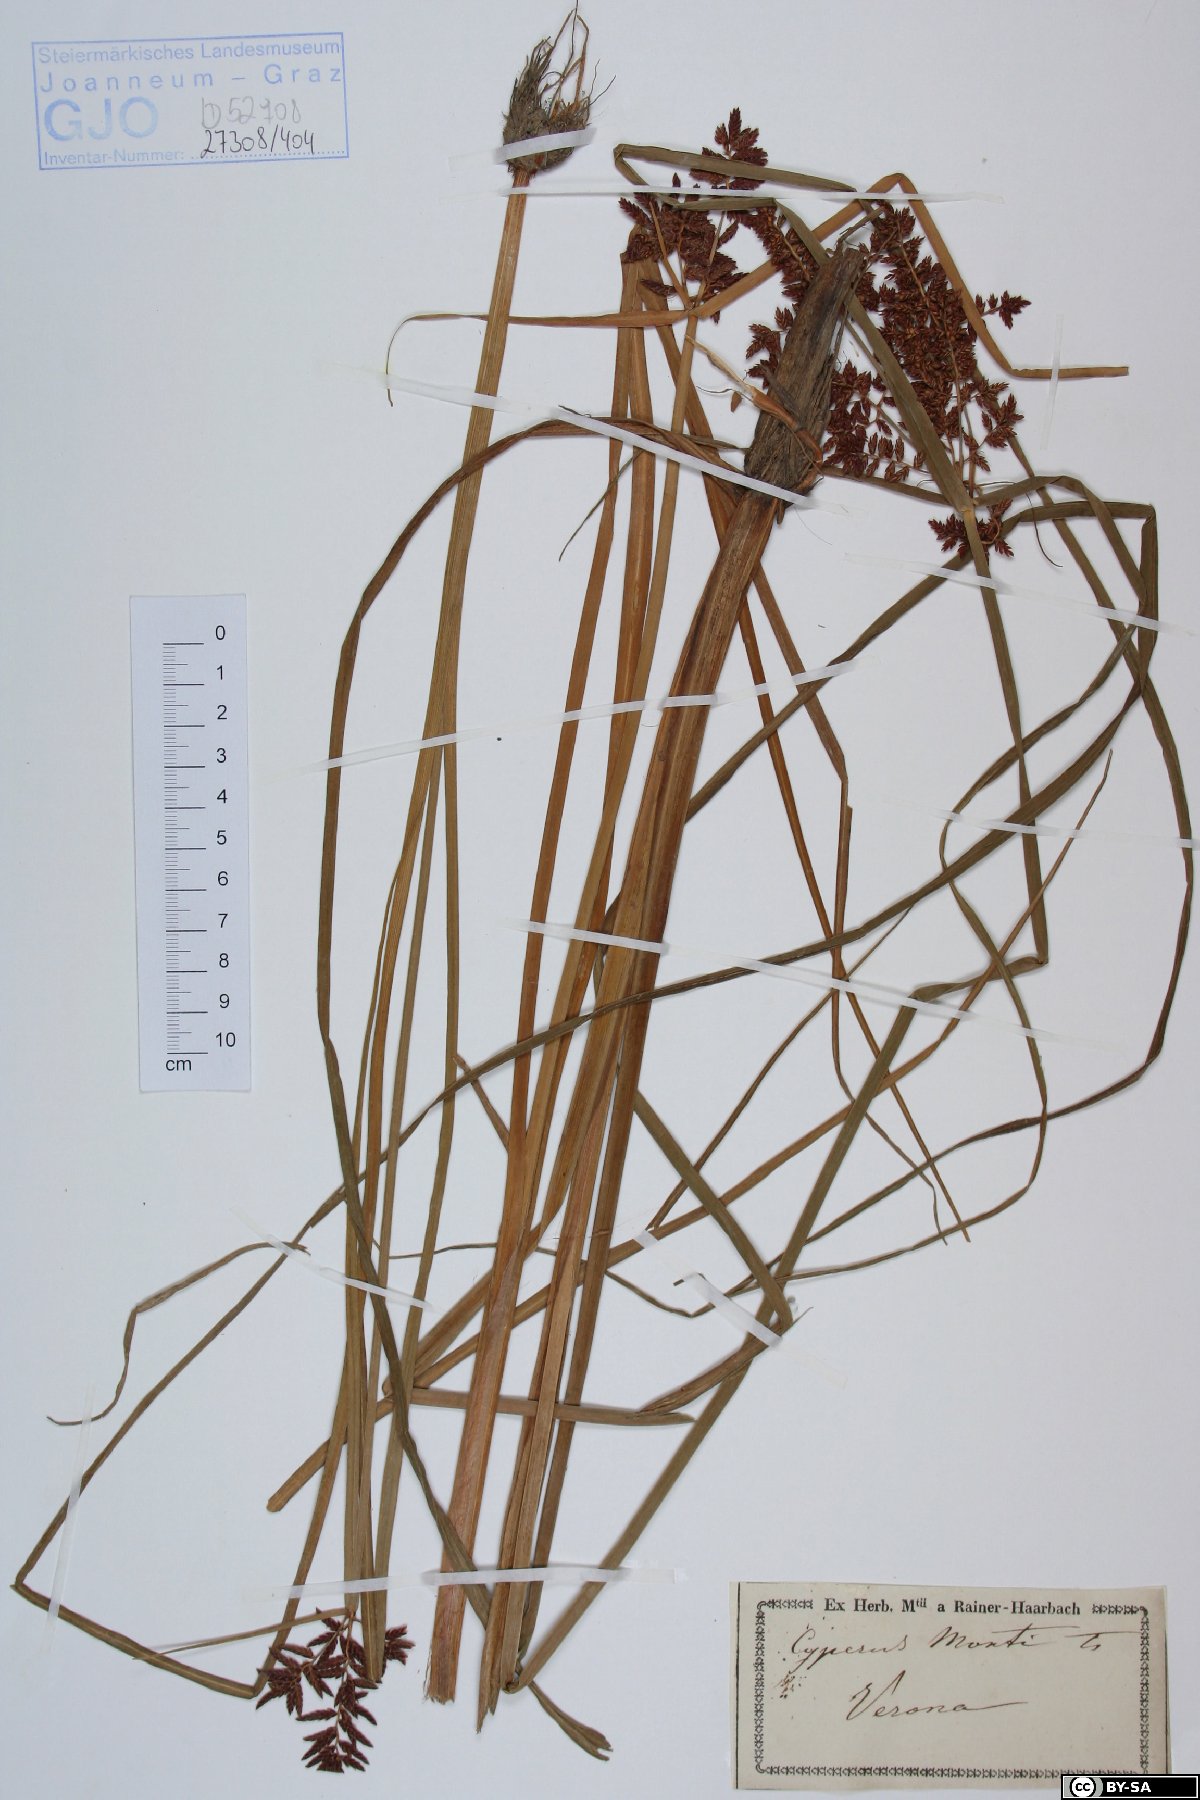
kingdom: Plantae
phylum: Tracheophyta
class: Liliopsida
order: Poales
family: Cyperaceae
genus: Cyperus
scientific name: Cyperus serotinus
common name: Tidalmarsh flatsedge
